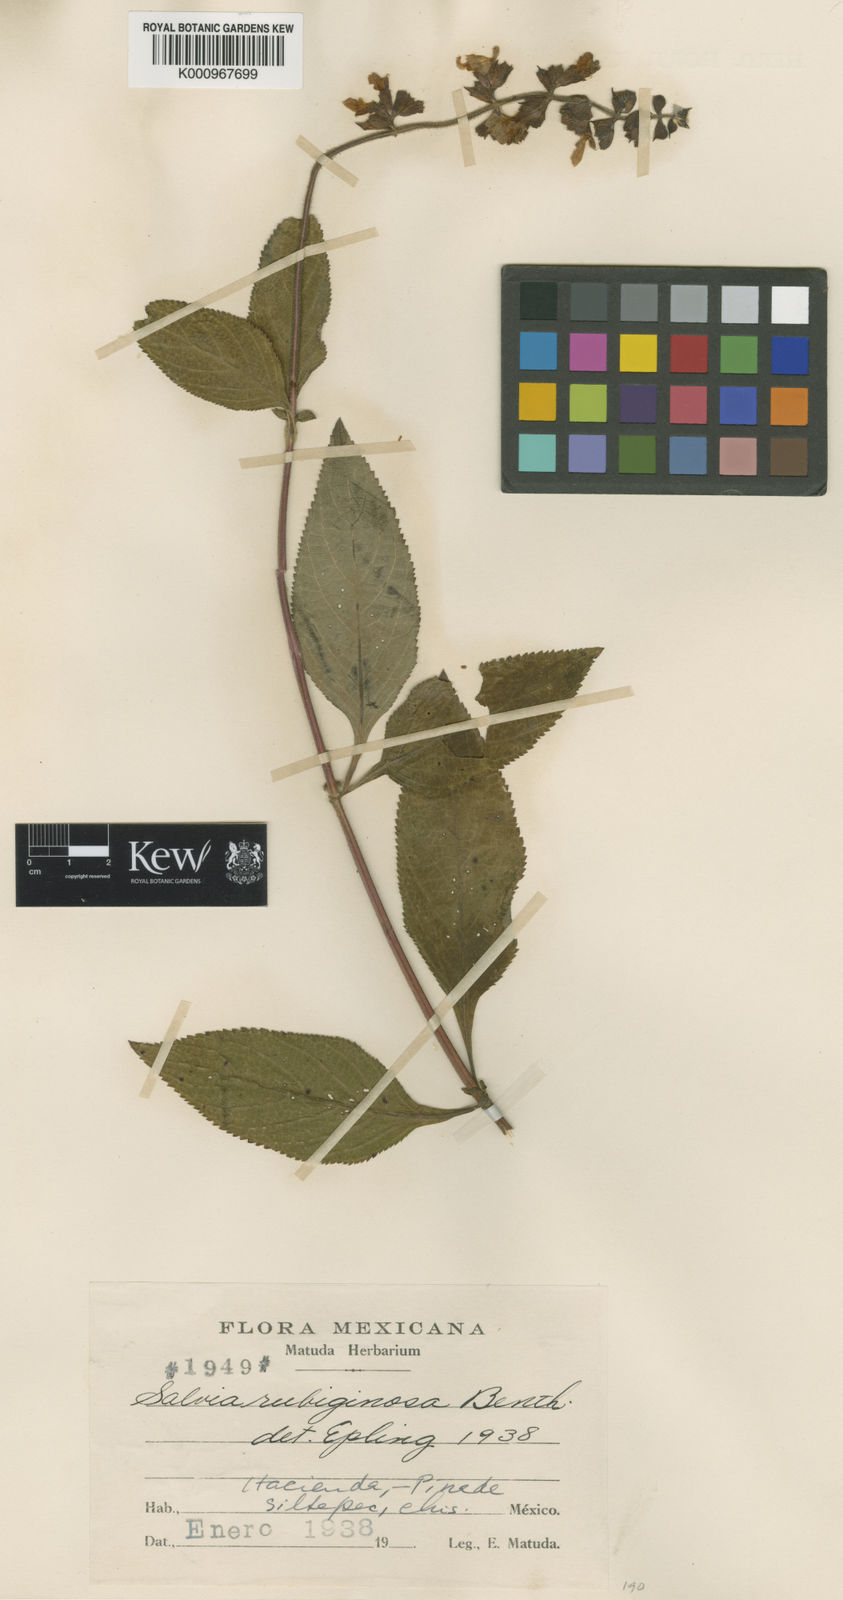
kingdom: Plantae
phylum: Tracheophyta
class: Magnoliopsida
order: Lamiales
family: Lamiaceae
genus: Salvia
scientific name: Salvia mocinoi
